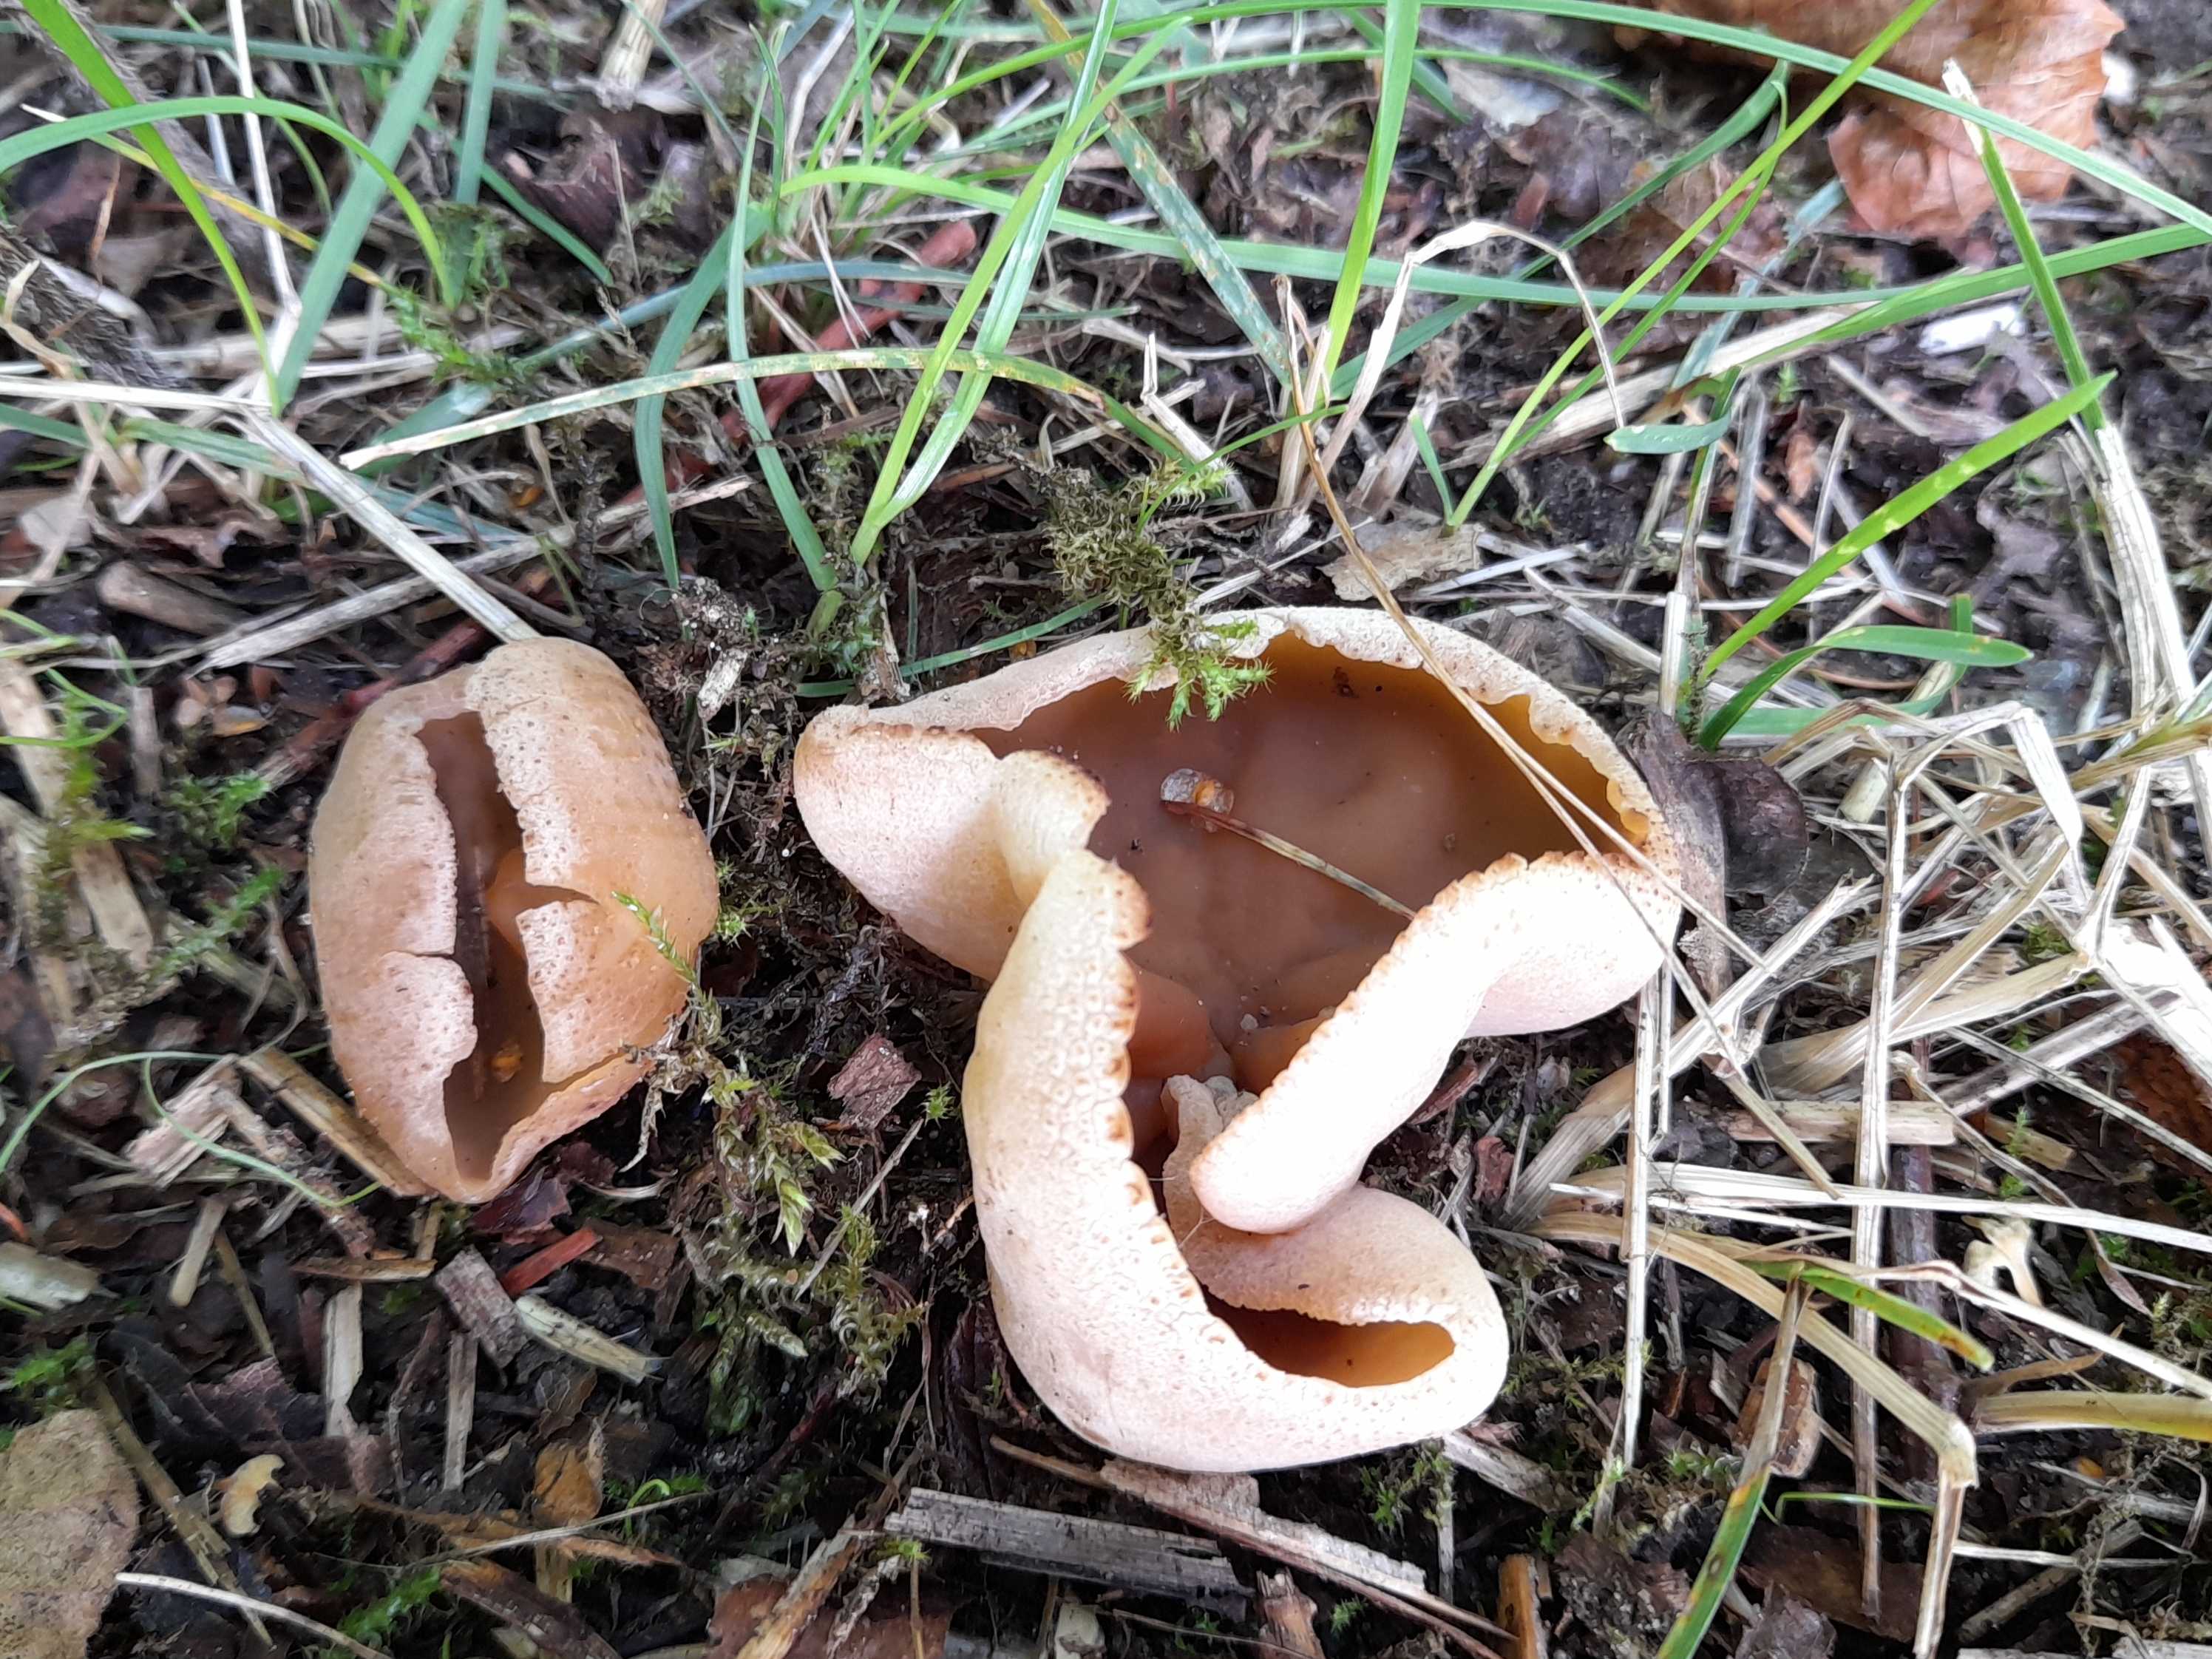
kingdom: Fungi
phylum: Ascomycota
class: Pezizomycetes
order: Pezizales
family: Pezizaceae
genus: Peziza
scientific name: Peziza
